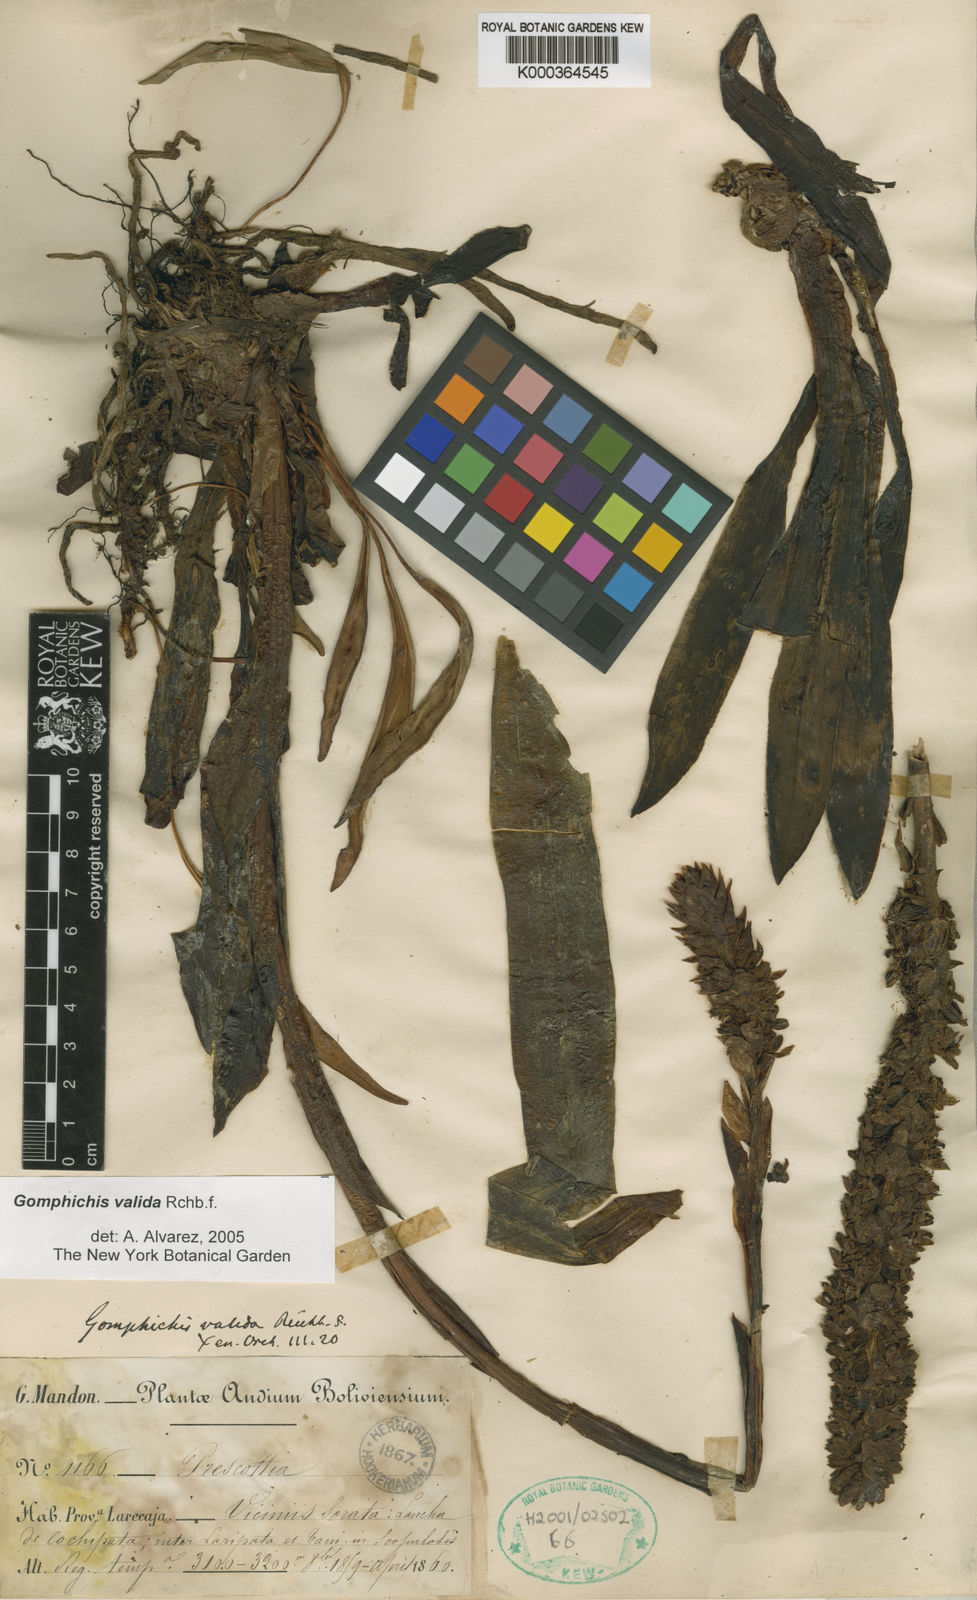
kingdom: Plantae
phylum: Tracheophyta
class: Liliopsida
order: Asparagales
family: Orchidaceae
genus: Gomphichis
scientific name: Gomphichis valida
